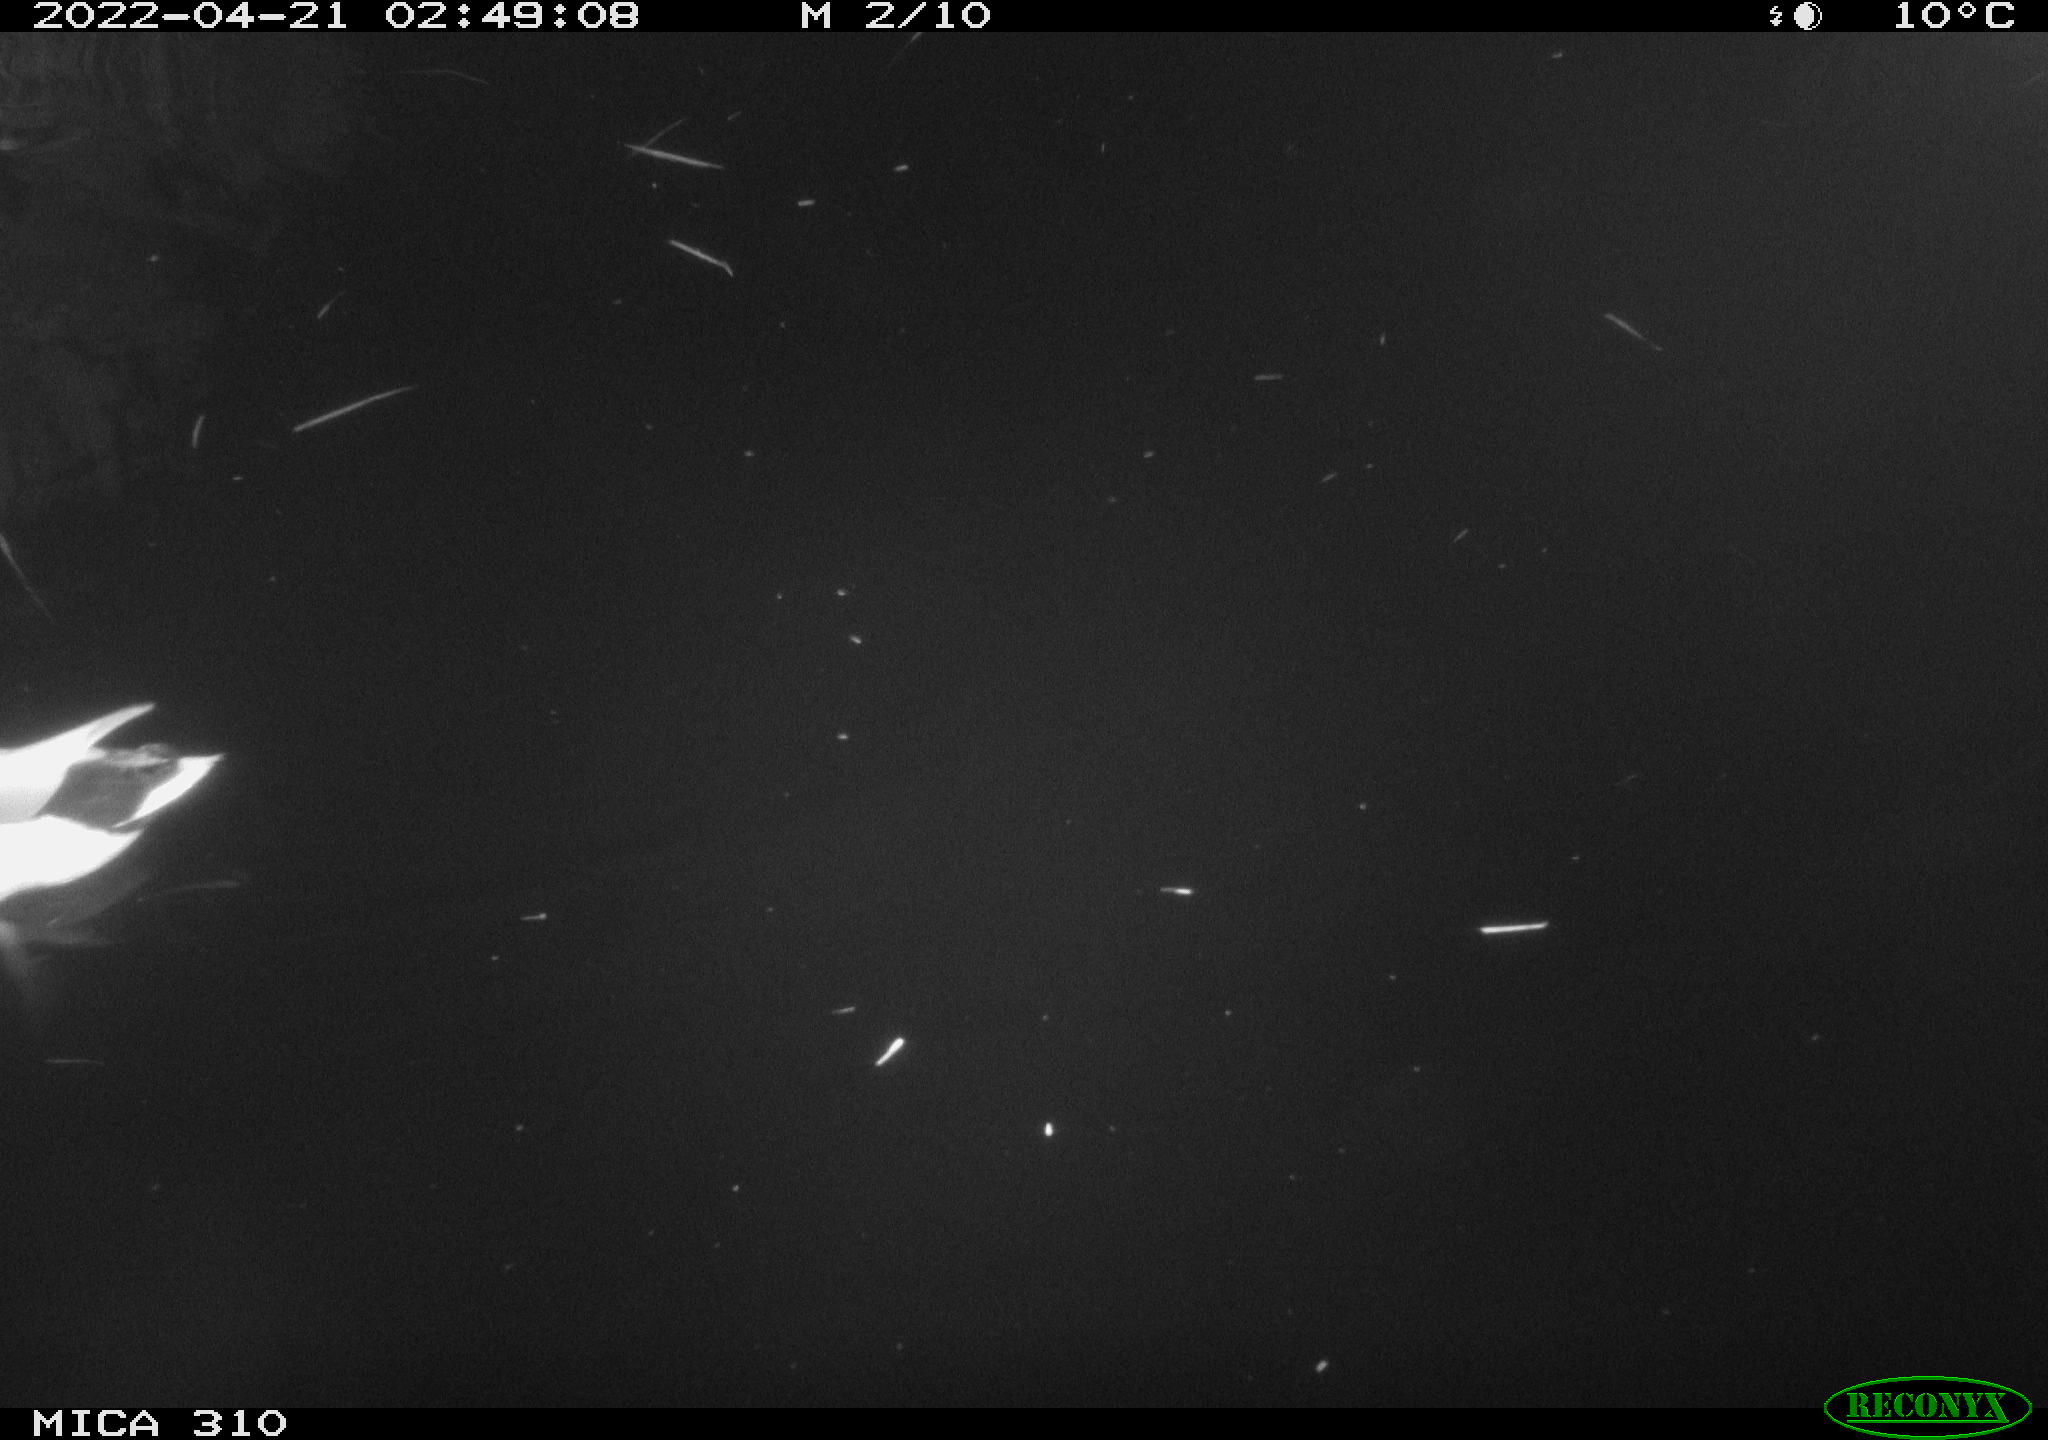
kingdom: Animalia
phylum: Chordata
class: Aves
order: Anseriformes
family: Anatidae
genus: Anas
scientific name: Anas platyrhynchos
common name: Mallard
